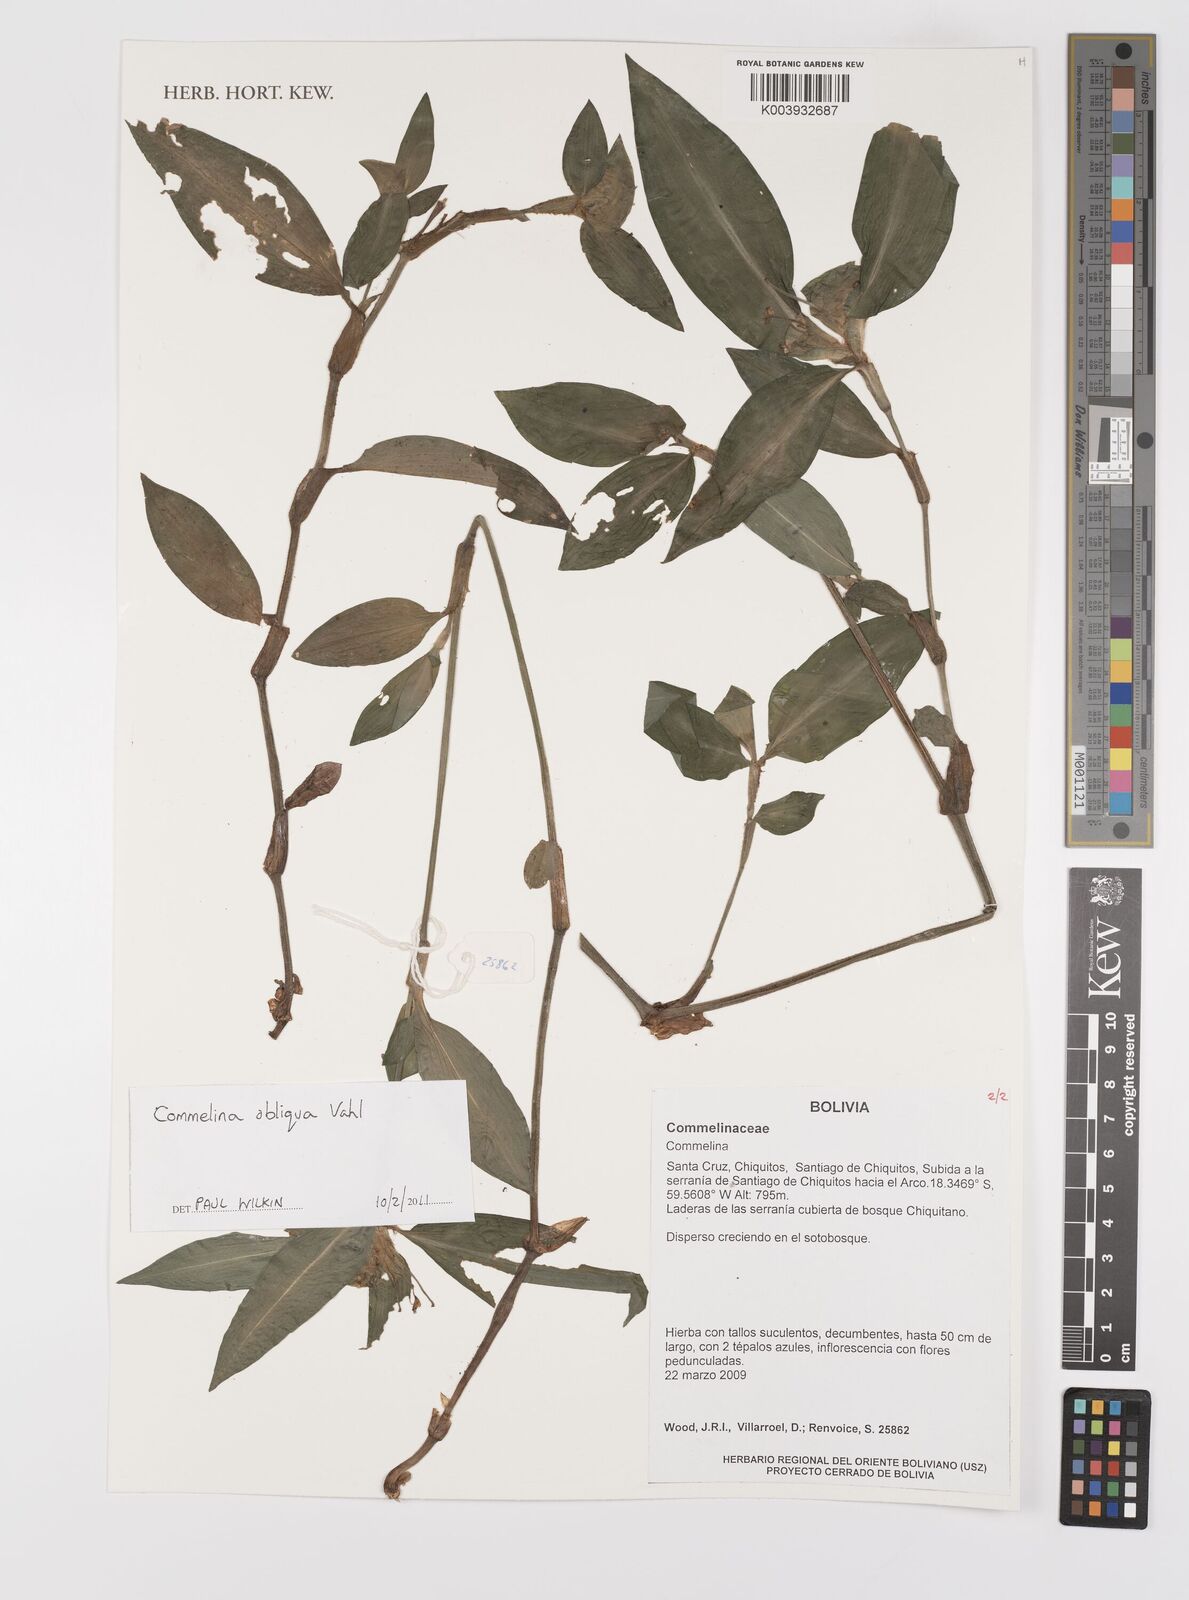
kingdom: Plantae
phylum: Tracheophyta
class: Liliopsida
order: Commelinales
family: Commelinaceae
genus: Commelina
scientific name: Commelina obliqua
